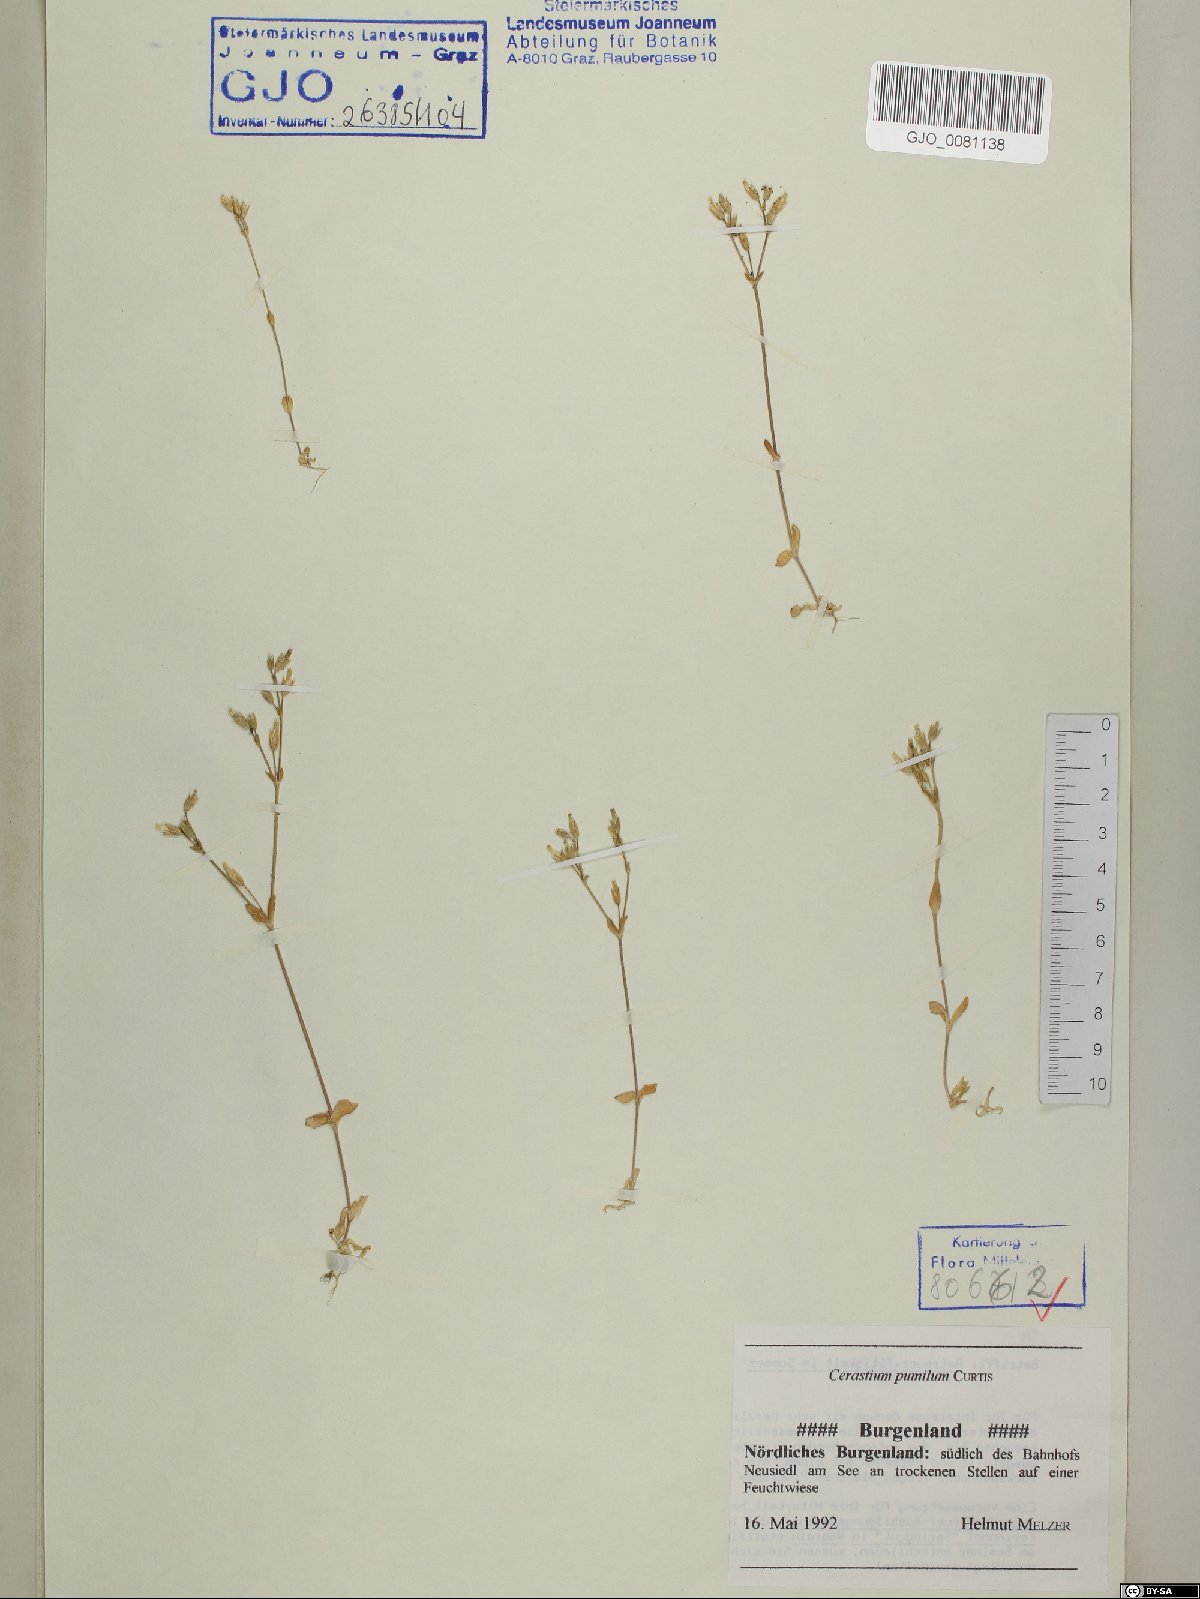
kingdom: Plantae
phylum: Tracheophyta
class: Magnoliopsida
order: Caryophyllales
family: Caryophyllaceae
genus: Cerastium
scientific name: Cerastium pumilum
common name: Dwarf mouse-ear
